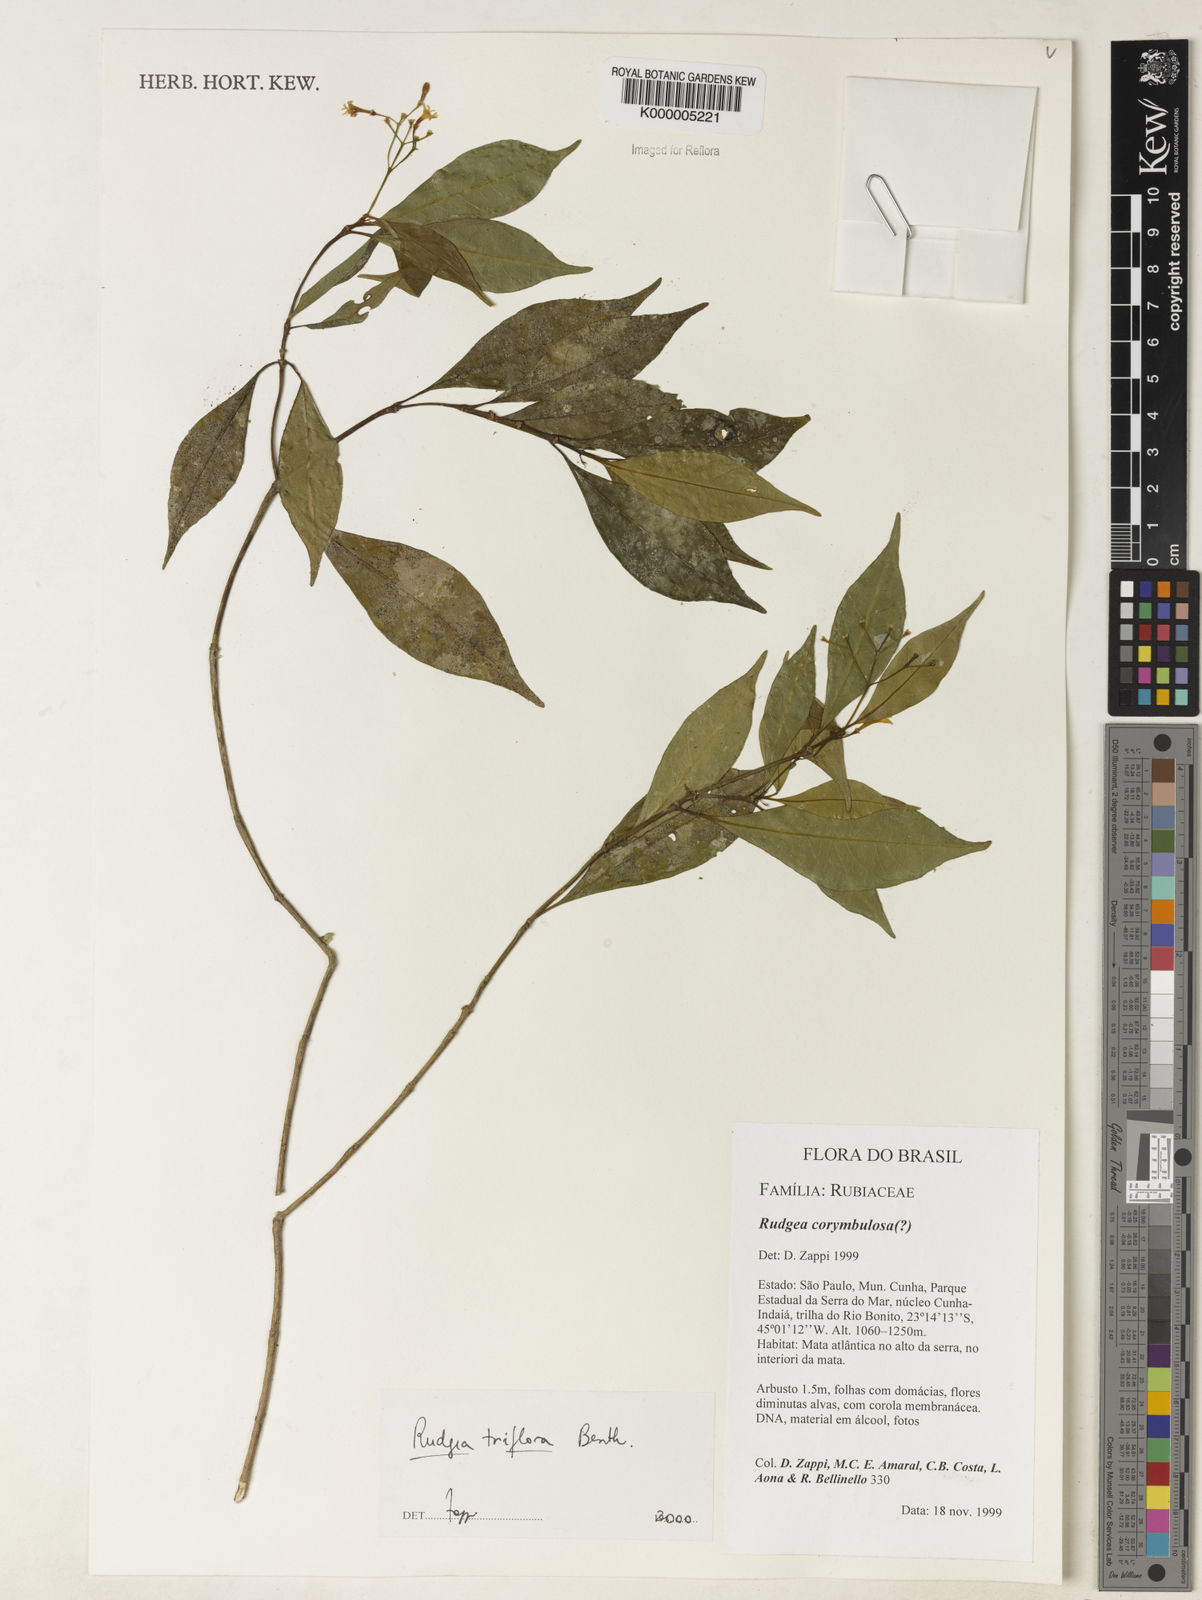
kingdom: Plantae
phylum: Tracheophyta
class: Magnoliopsida
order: Gentianales
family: Rubiaceae
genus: Rudgea
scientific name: Rudgea triflora
